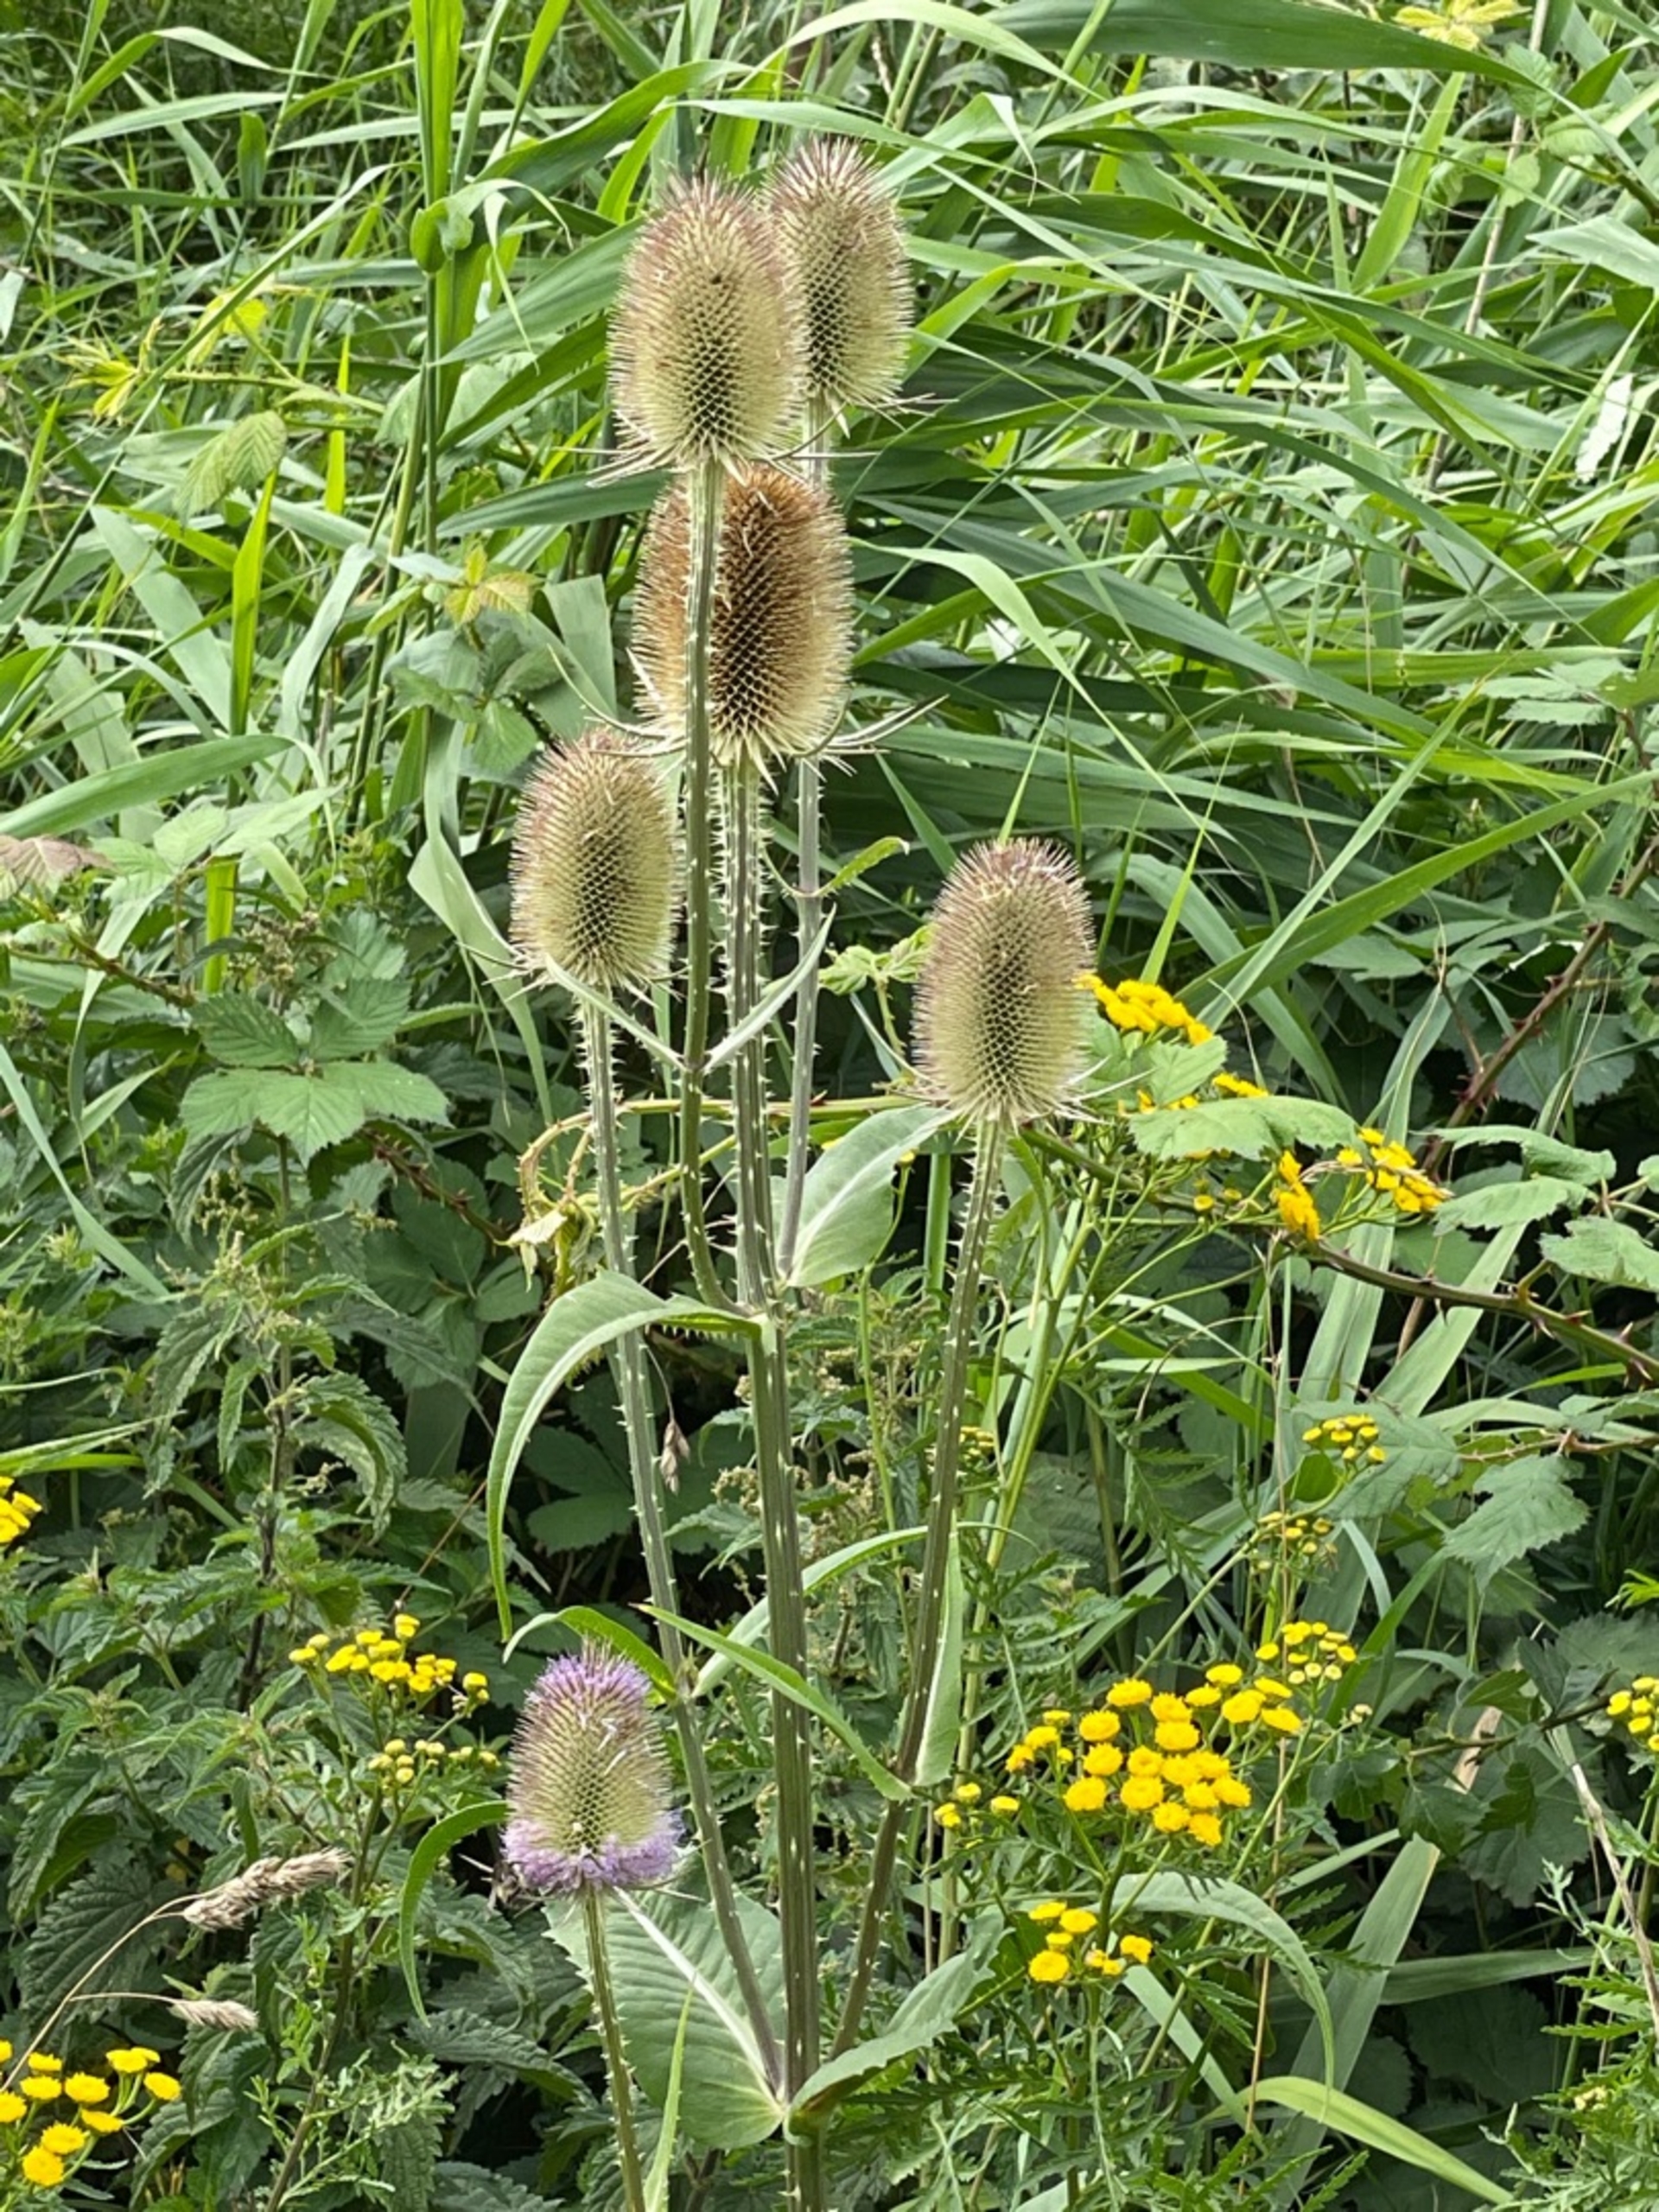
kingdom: Plantae
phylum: Tracheophyta
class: Magnoliopsida
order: Dipsacales
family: Caprifoliaceae
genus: Dipsacus
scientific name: Dipsacus fullonum
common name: Gærde-kartebolle
